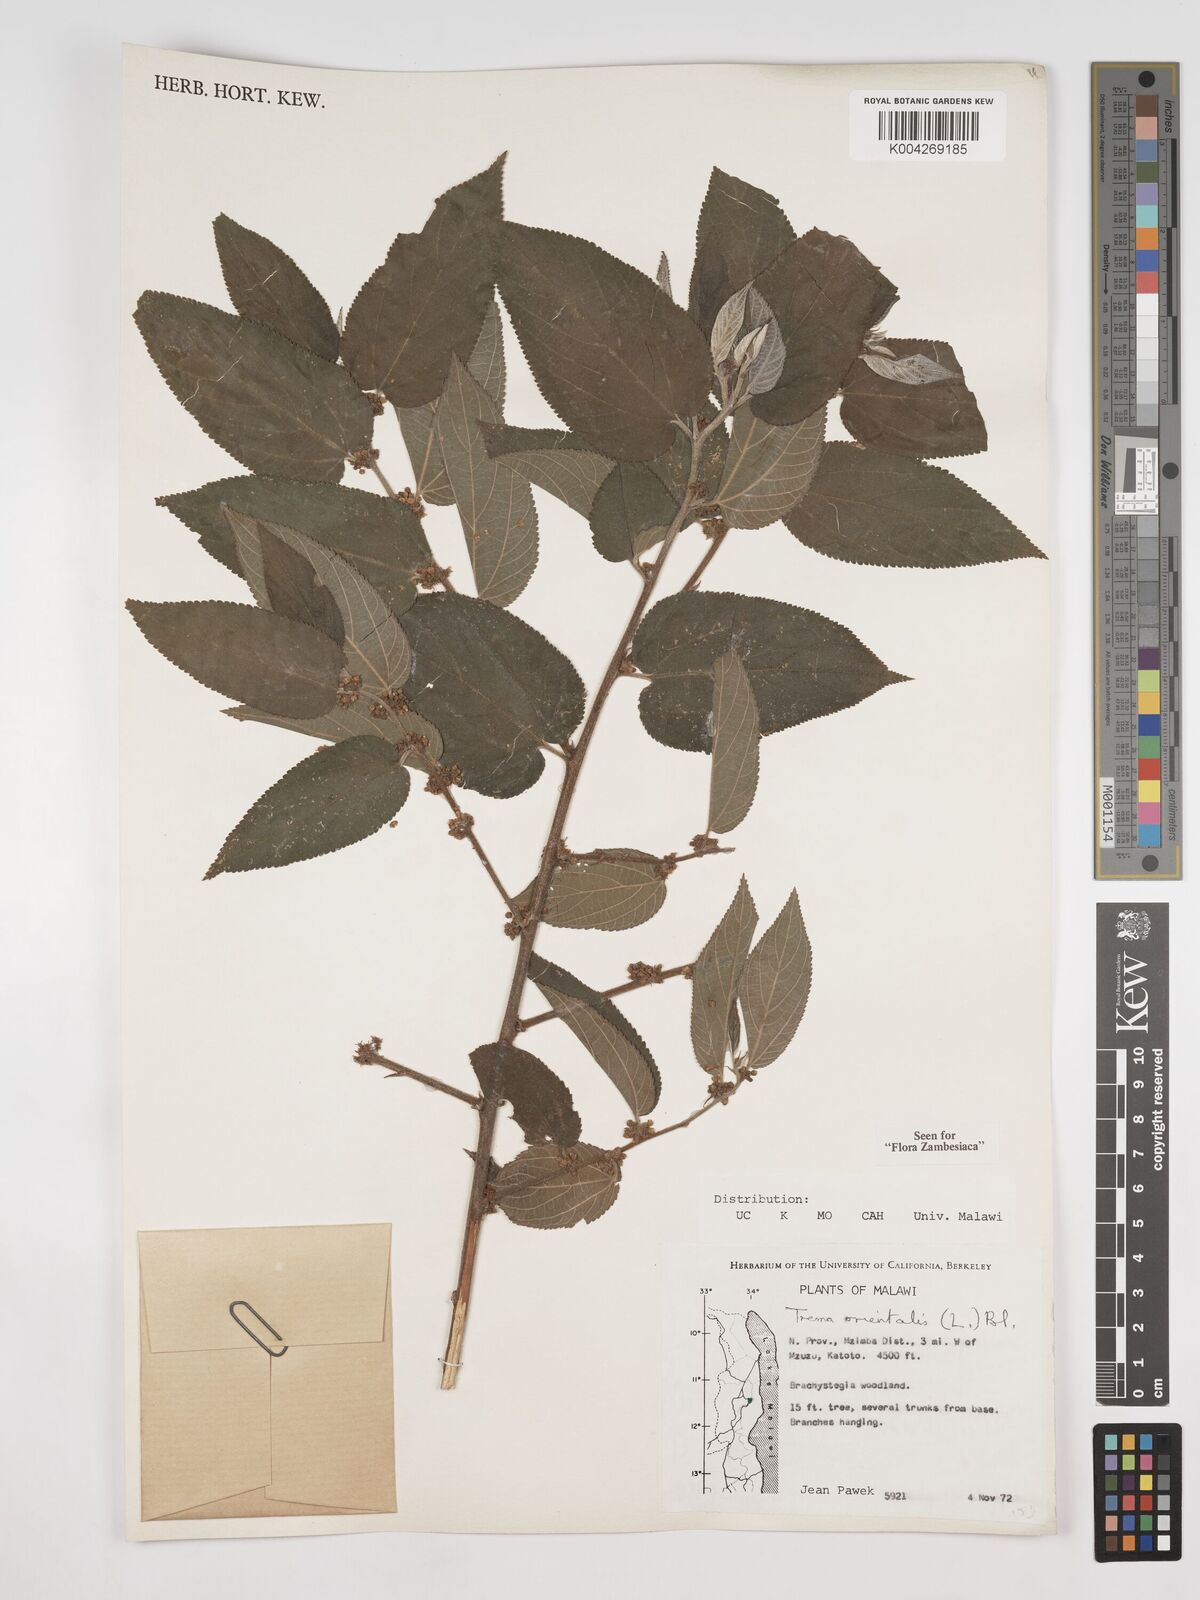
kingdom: Plantae
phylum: Tracheophyta
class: Magnoliopsida
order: Rosales
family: Cannabaceae
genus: Trema
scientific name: Trema orientale
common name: Indian charcoal tree
